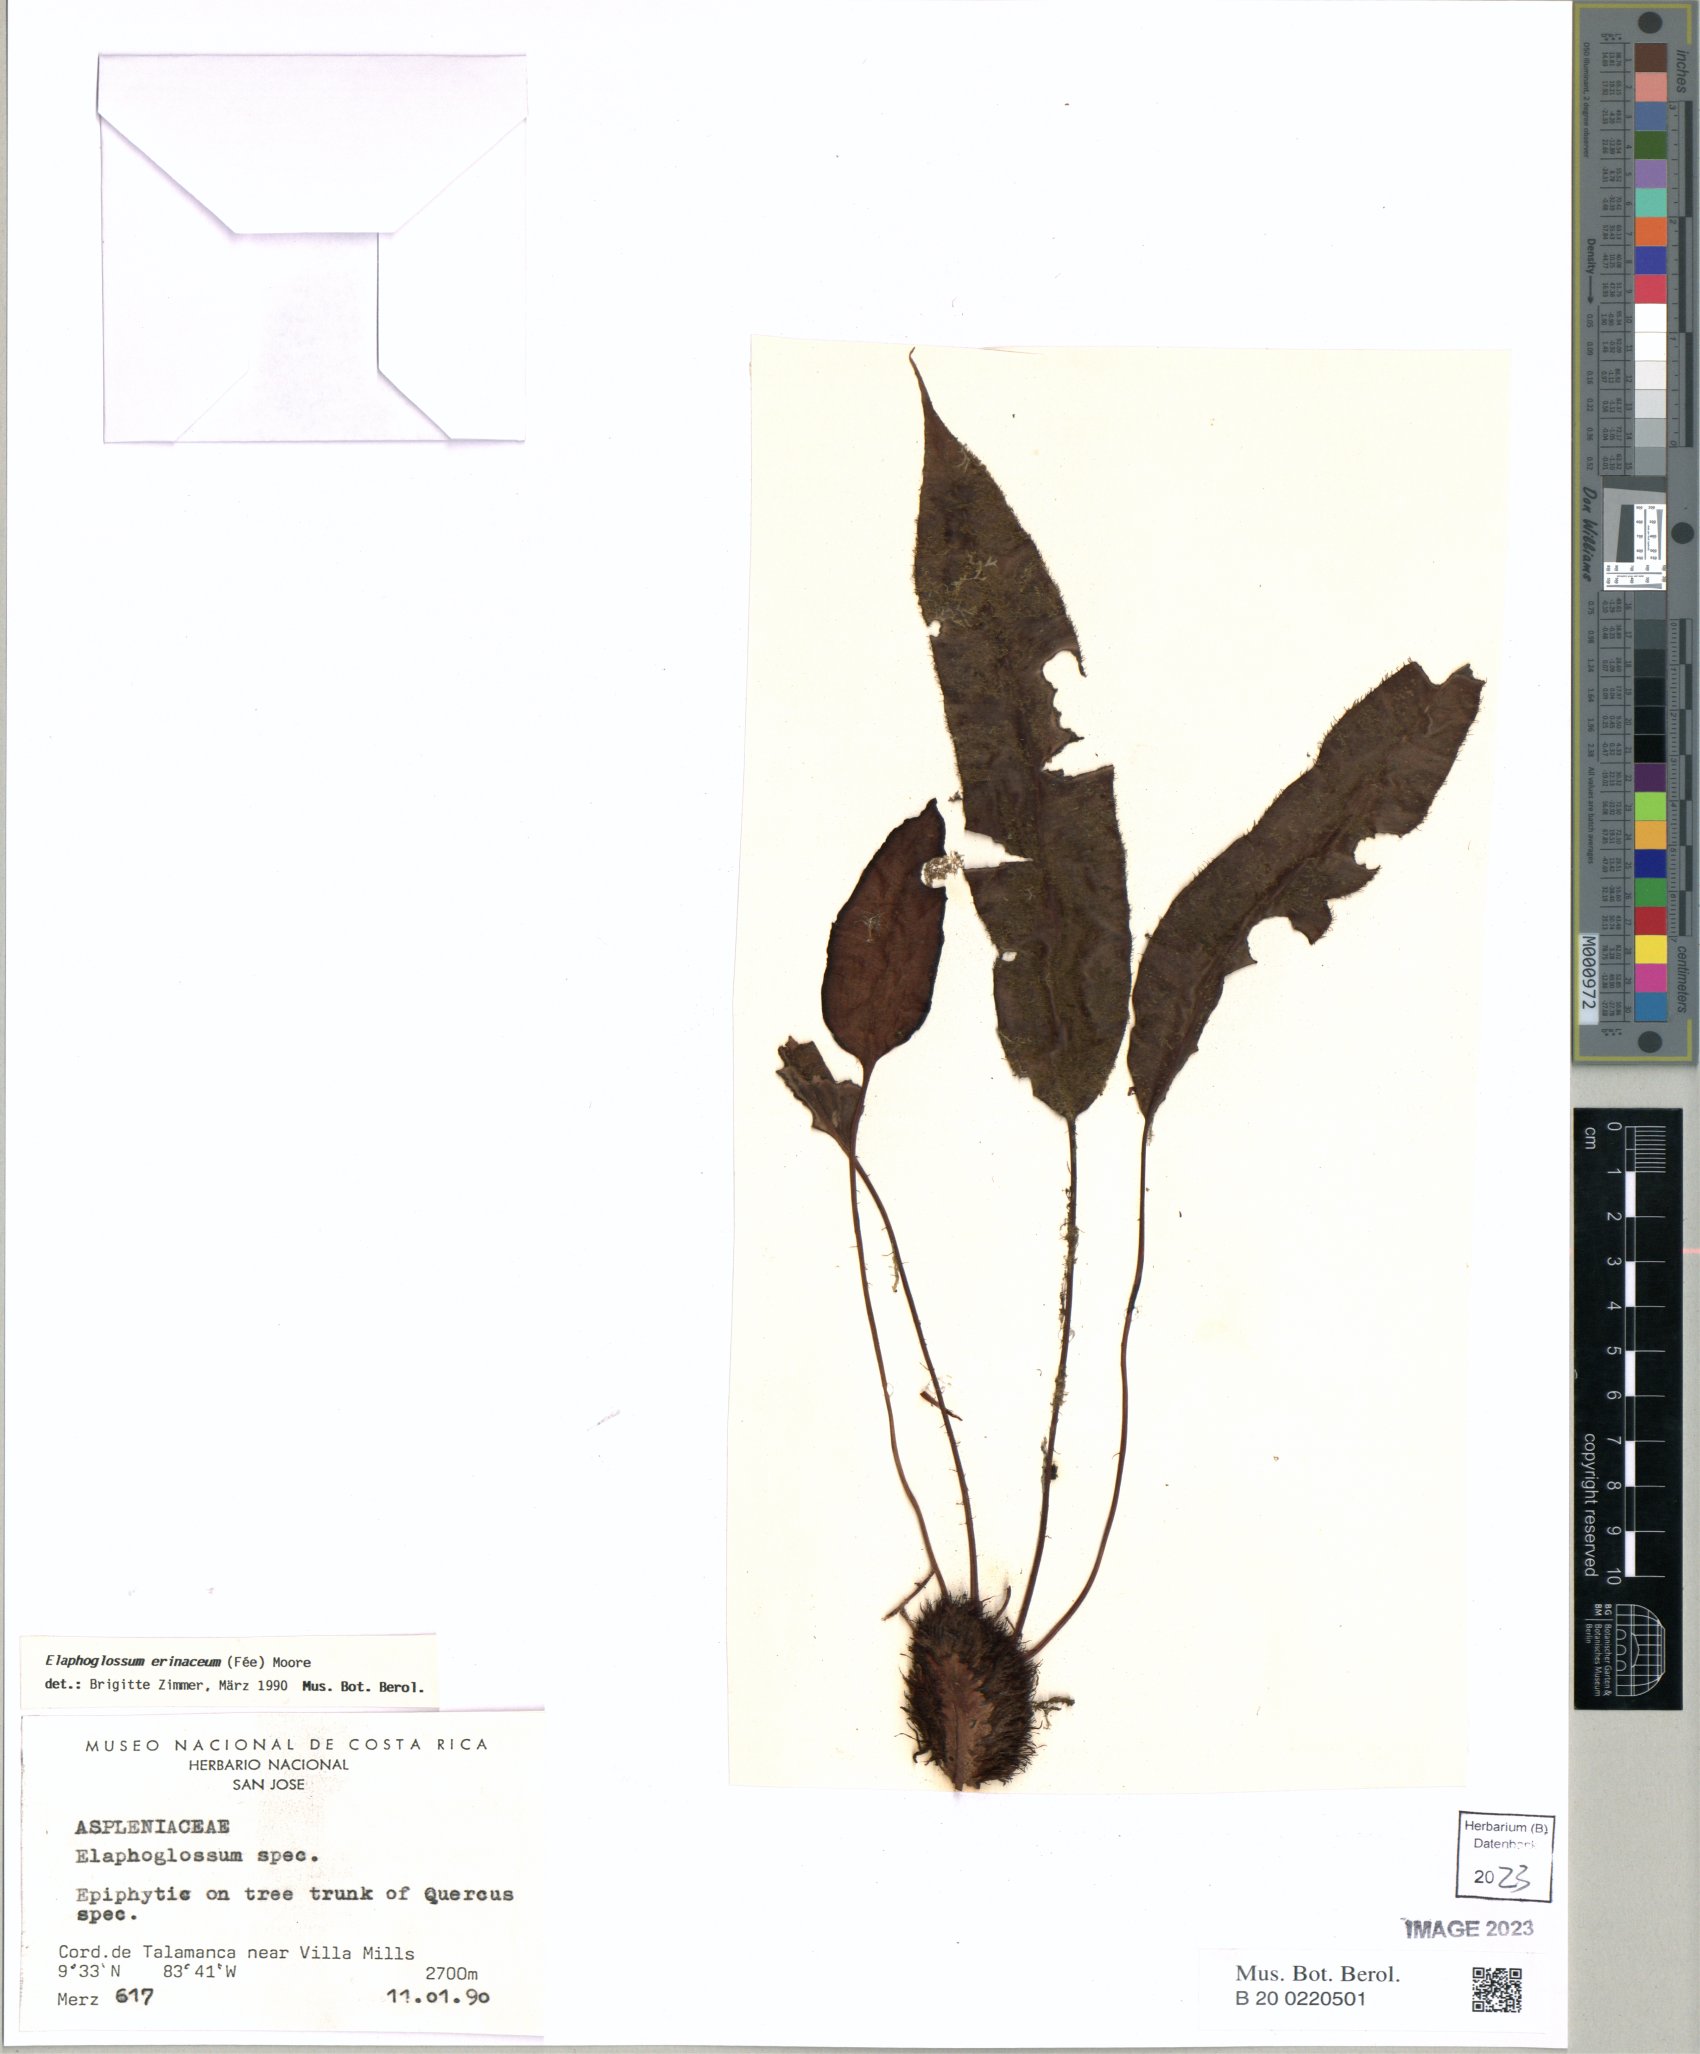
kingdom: Plantae
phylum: Tracheophyta
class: Polypodiopsida
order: Polypodiales
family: Dryopteridaceae
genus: Elaphoglossum
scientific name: Elaphoglossum erinaceum
